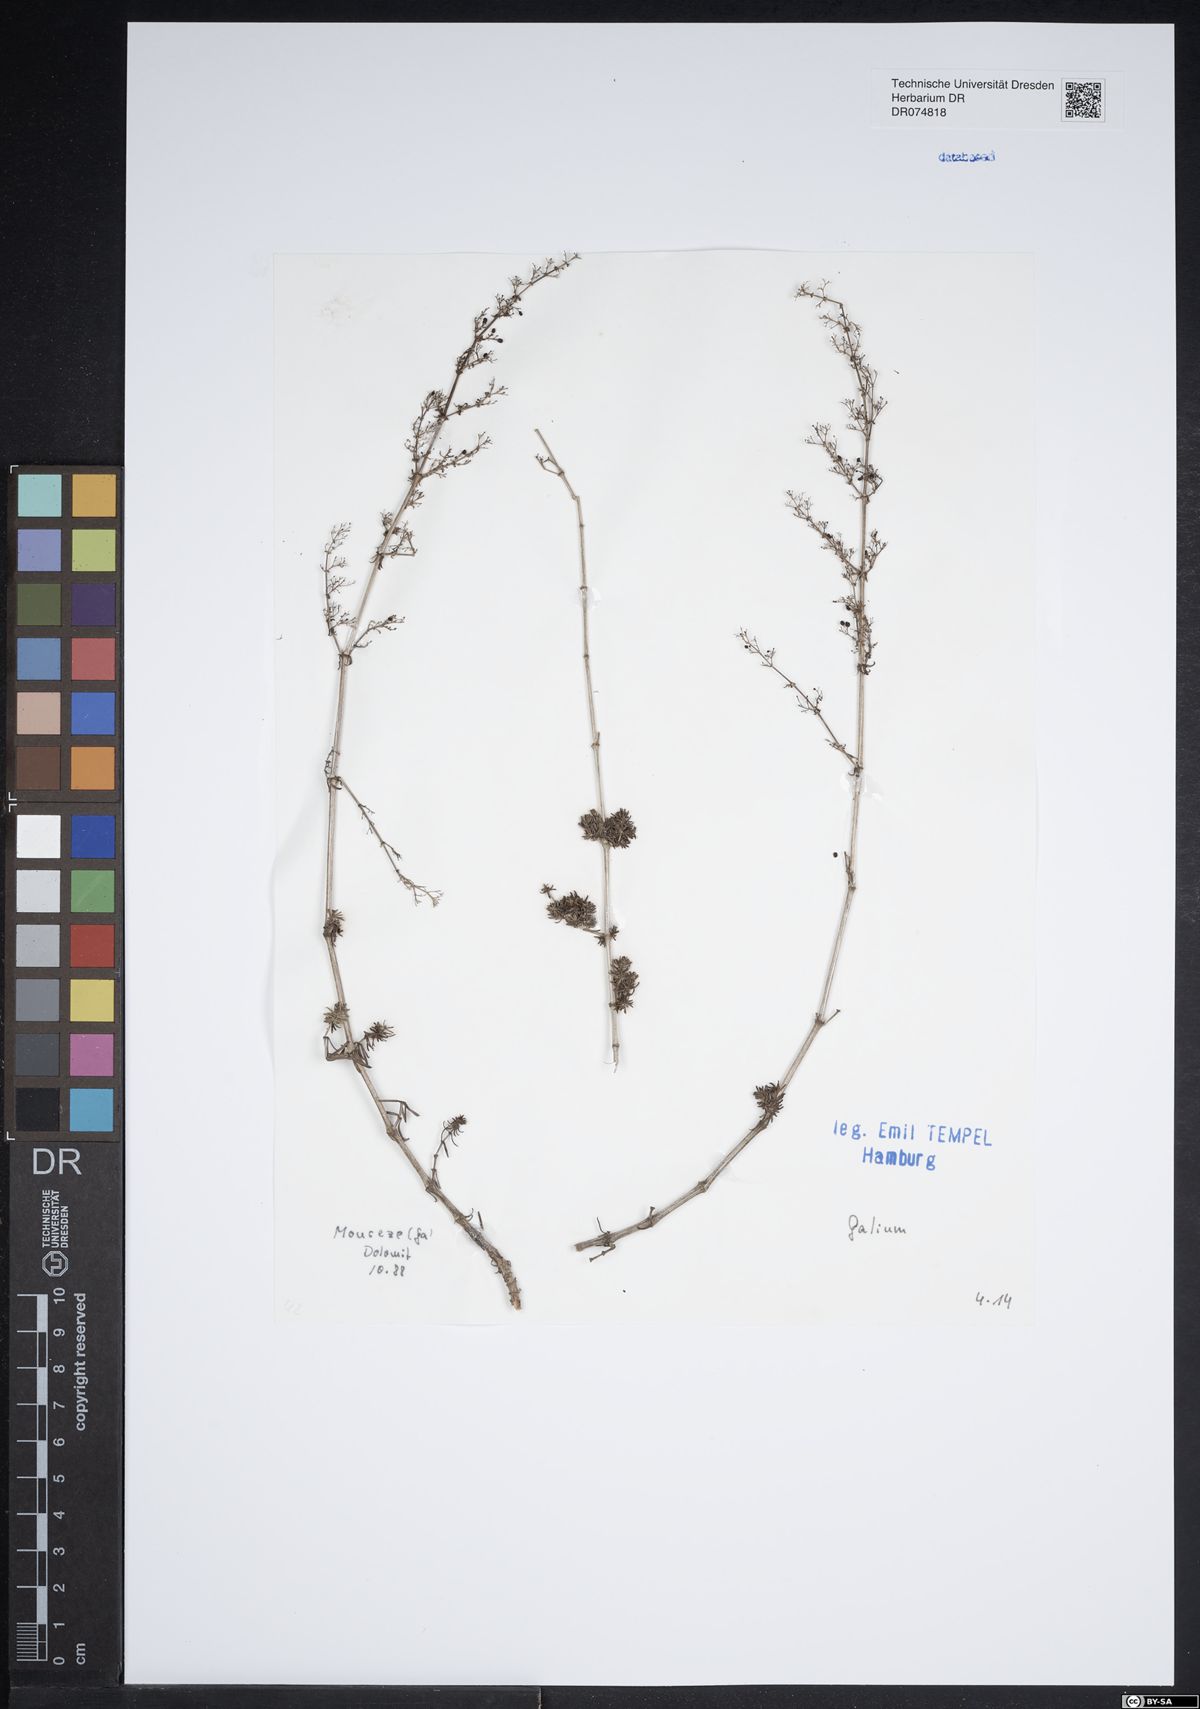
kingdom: Plantae
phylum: Tracheophyta
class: Magnoliopsida
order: Gentianales
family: Rubiaceae
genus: Galium
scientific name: Galium
